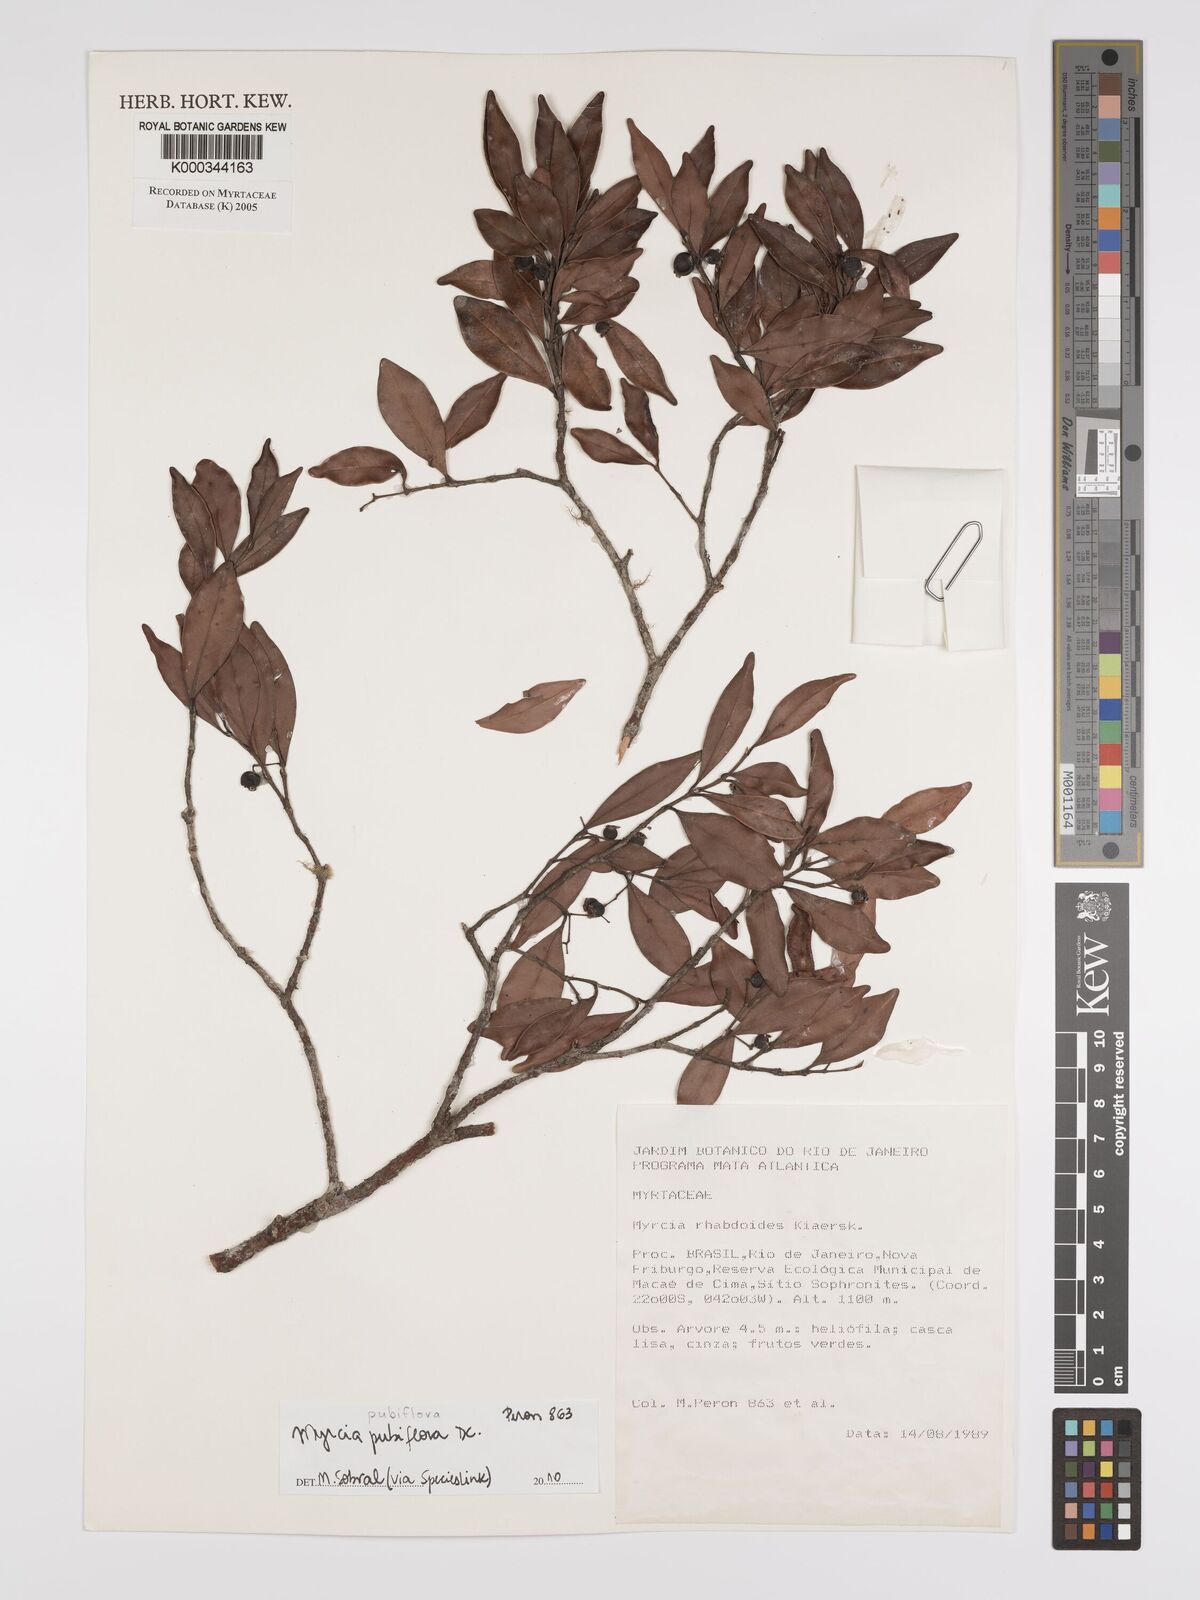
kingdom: Plantae
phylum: Tracheophyta
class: Magnoliopsida
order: Myrtales
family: Myrtaceae
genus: Myrcia
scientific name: Myrcia guianensis
